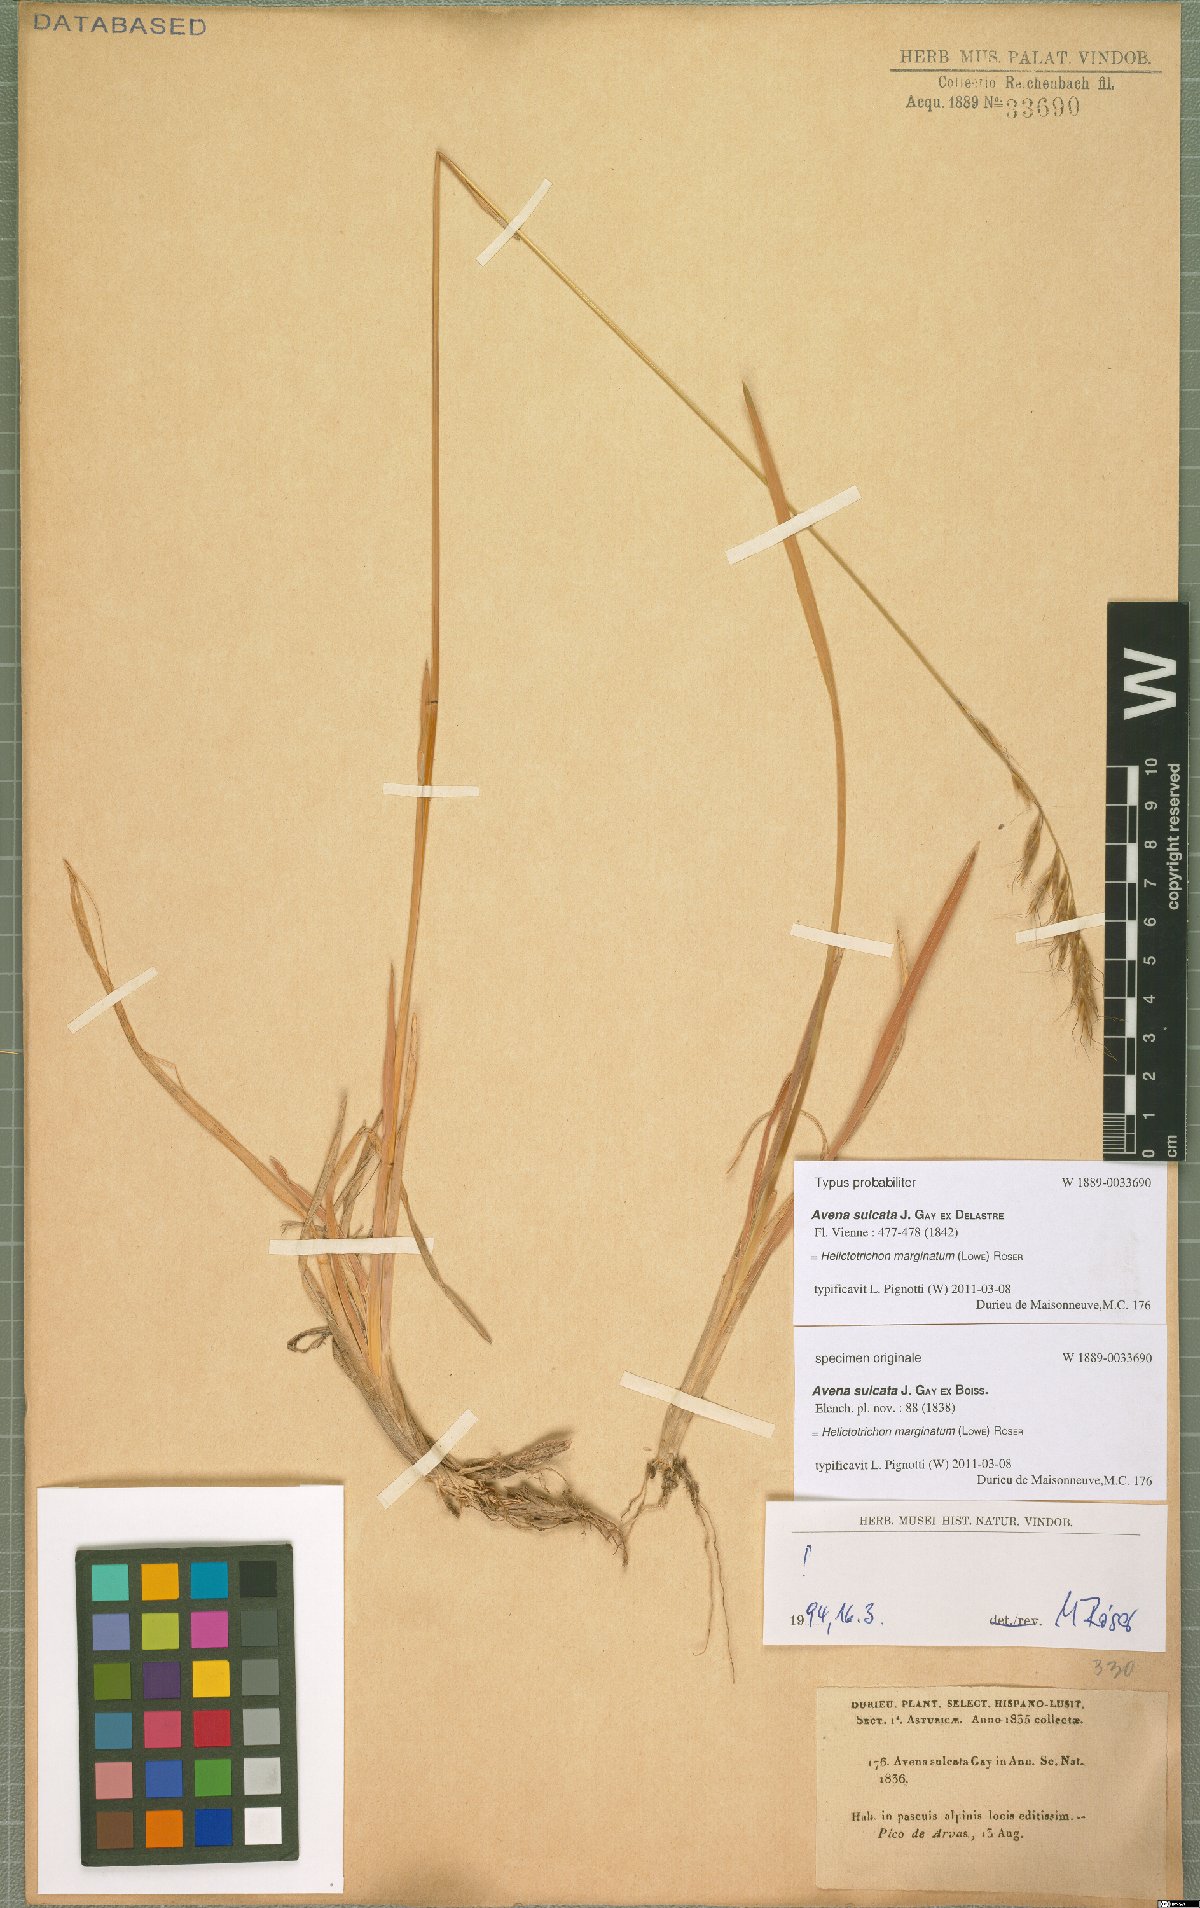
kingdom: Plantae
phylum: Tracheophyta
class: Liliopsida
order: Poales
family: Poaceae
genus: Helictochloa
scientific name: Helictochloa marginata
